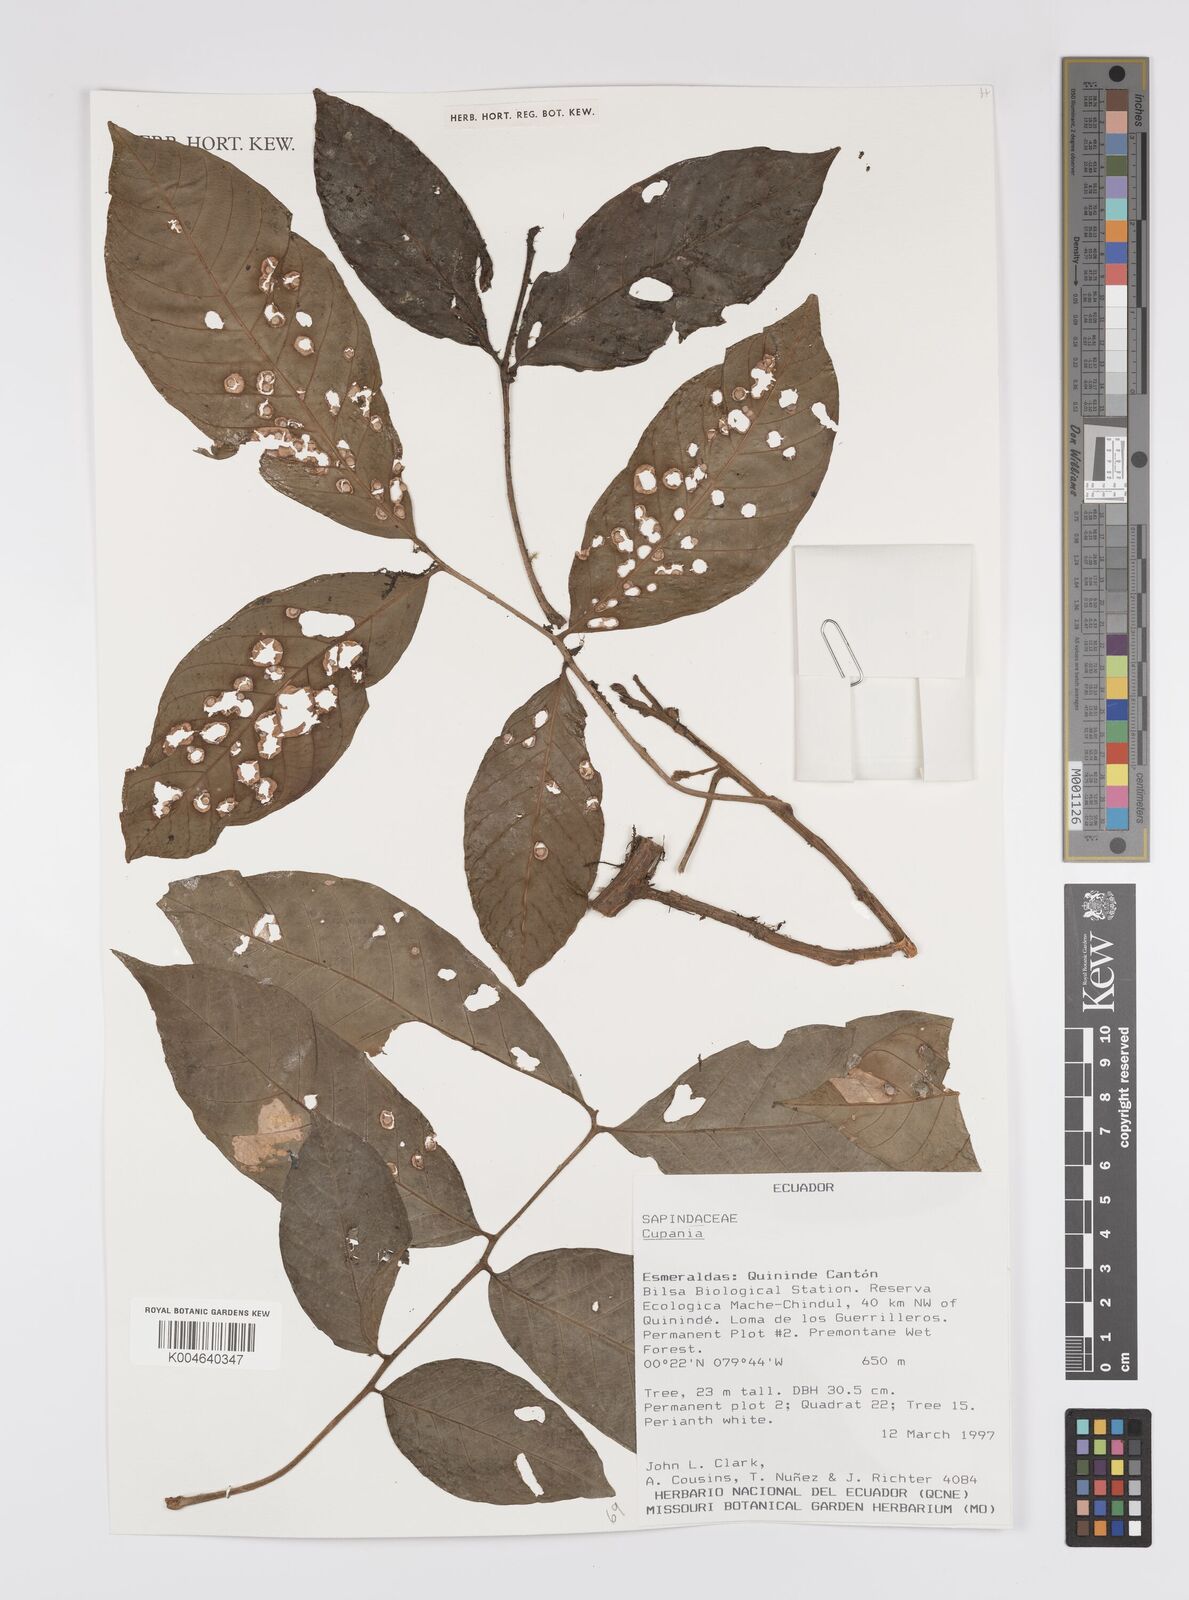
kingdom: Plantae
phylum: Tracheophyta
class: Magnoliopsida
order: Sapindales
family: Sapindaceae
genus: Cupania
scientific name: Cupania
